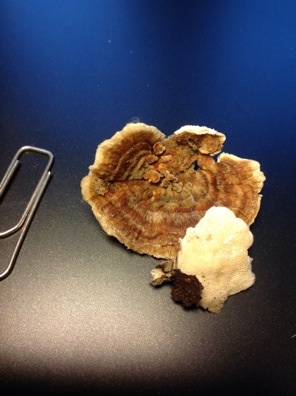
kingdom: Fungi
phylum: Basidiomycota
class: Agaricomycetes
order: Polyporales
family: Polyporaceae
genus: Trametes
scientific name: Trametes ochracea
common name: bæltet læderporesvamp
